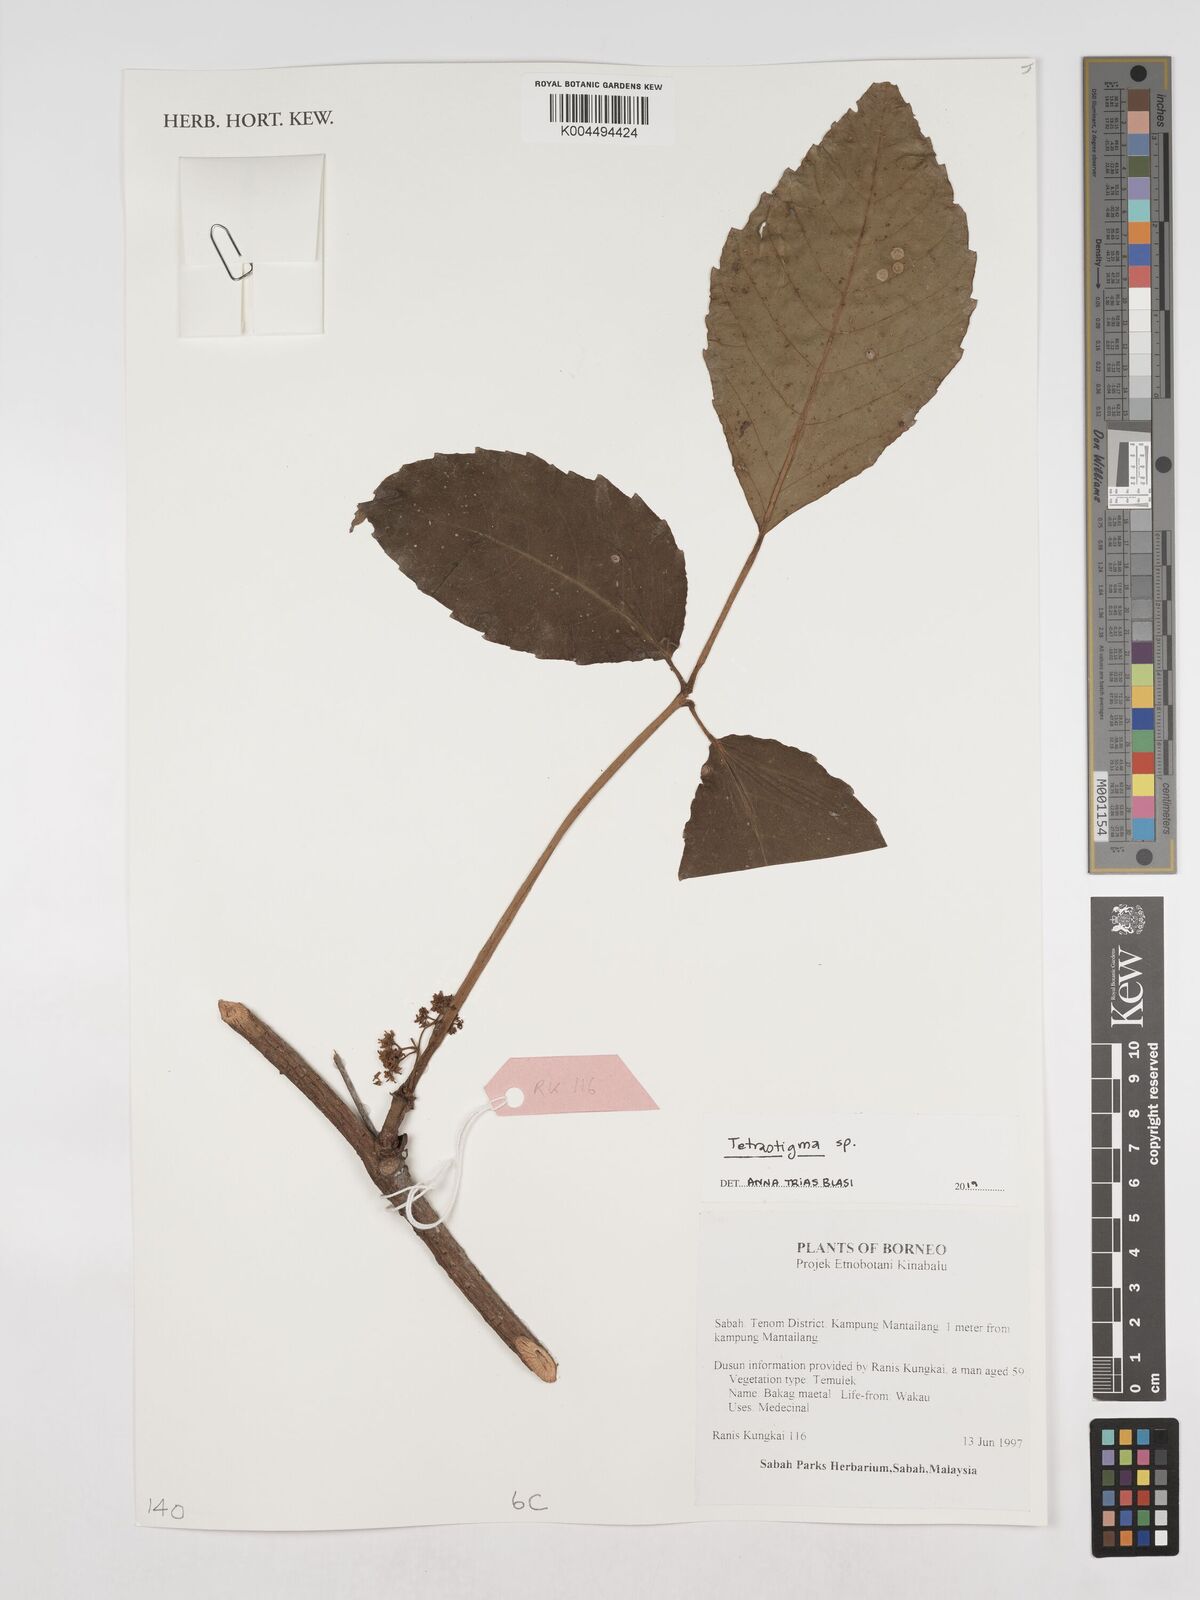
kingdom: Plantae
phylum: Tracheophyta
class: Magnoliopsida
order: Vitales
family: Vitaceae
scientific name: Vitaceae
